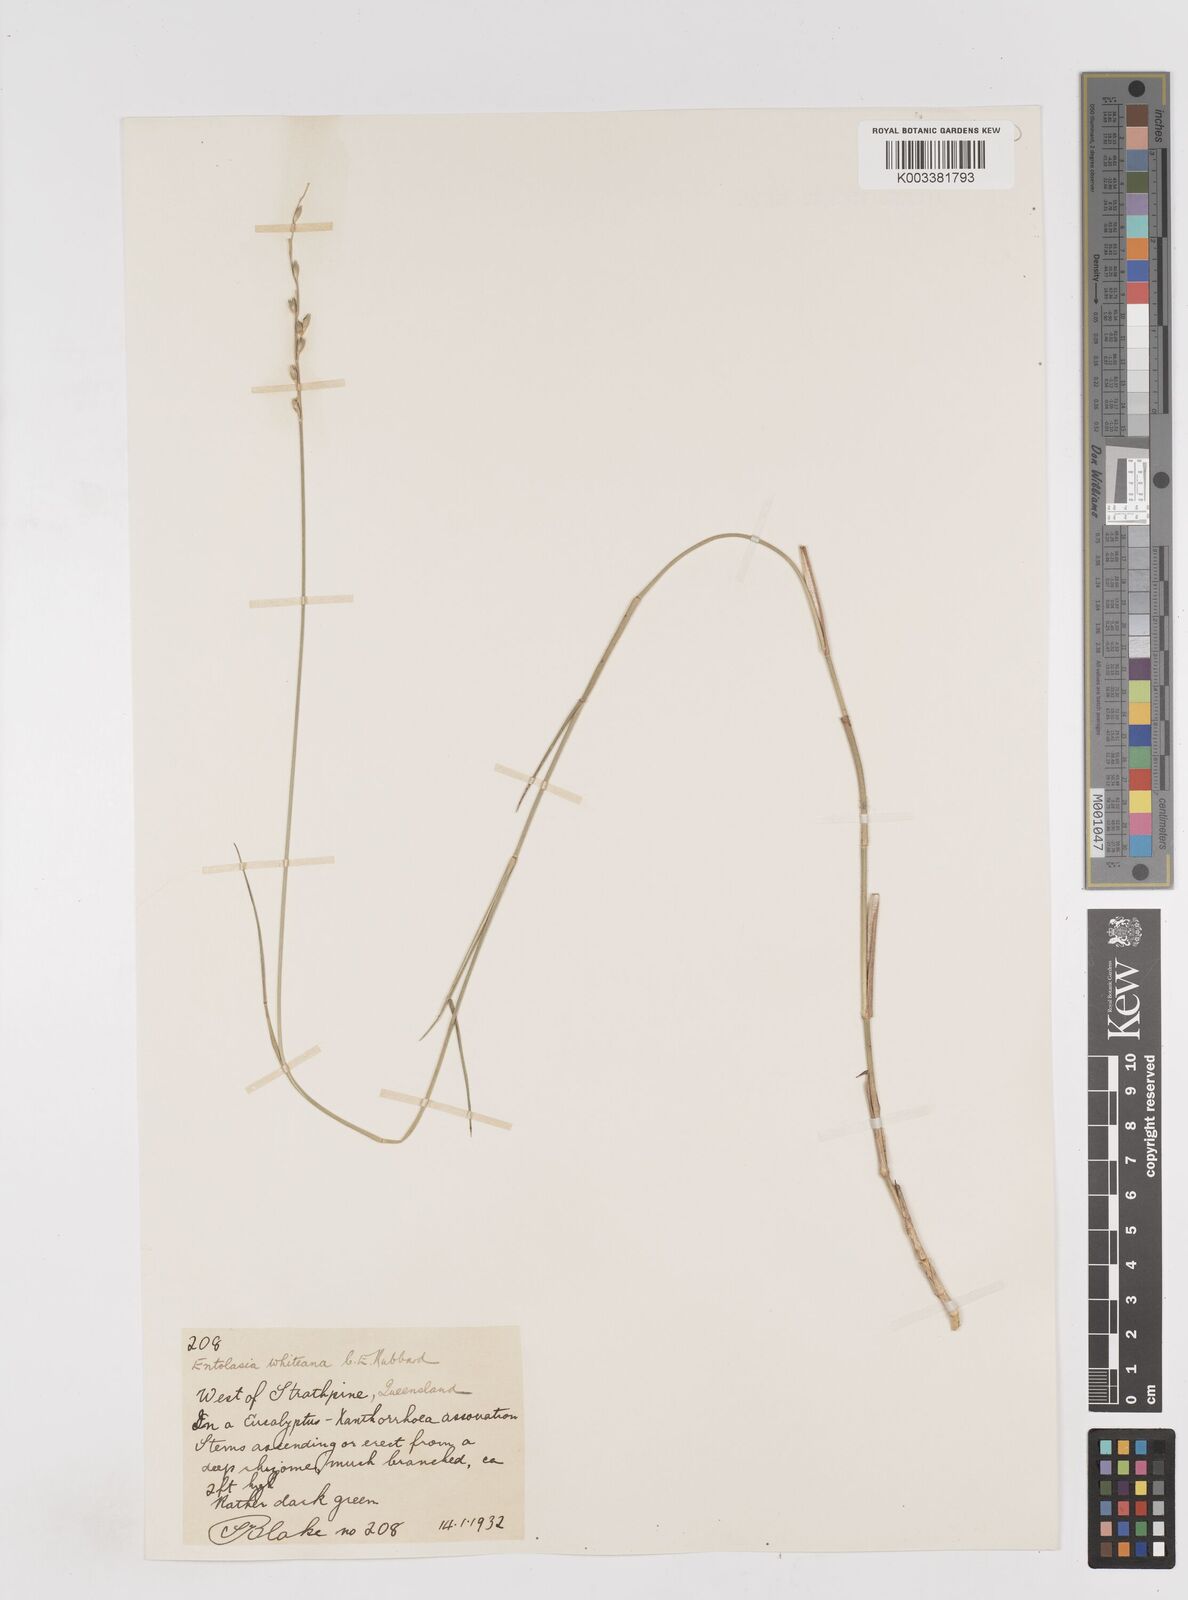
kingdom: Plantae
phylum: Tracheophyta
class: Liliopsida
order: Poales
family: Poaceae
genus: Entolasia
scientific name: Entolasia whiteana
